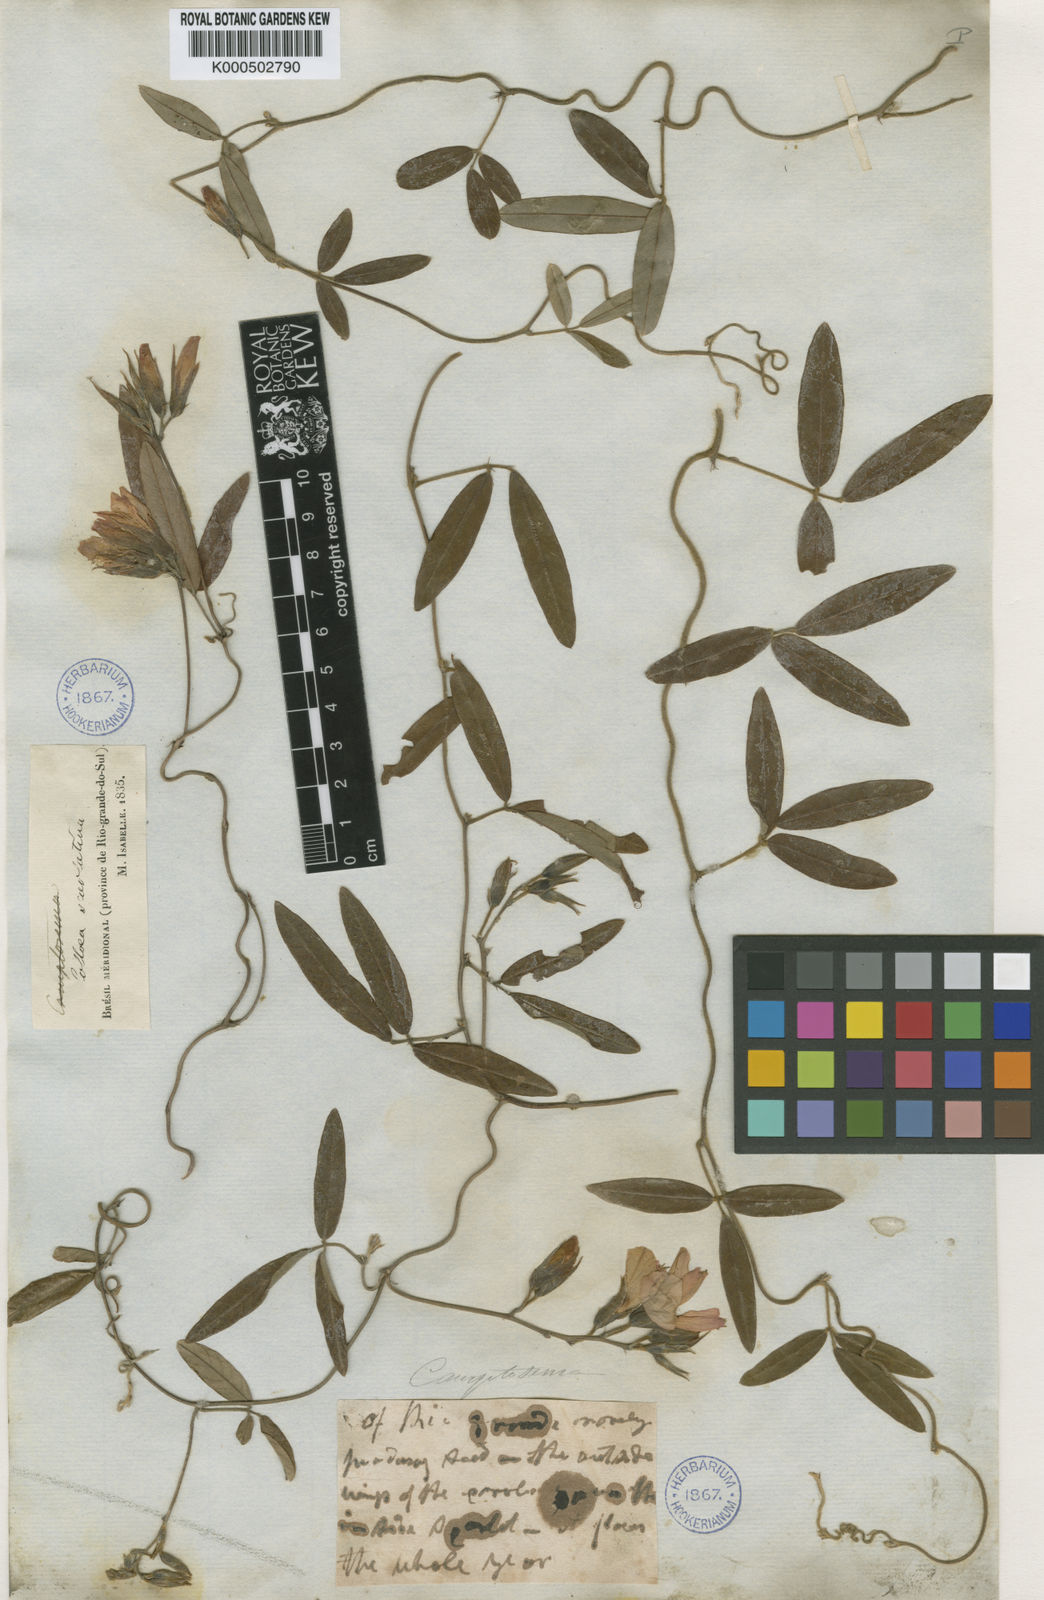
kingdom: Plantae
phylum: Tracheophyta
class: Magnoliopsida
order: Fabales
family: Fabaceae
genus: Betencourtia
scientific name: Betencourtia scarlatina
